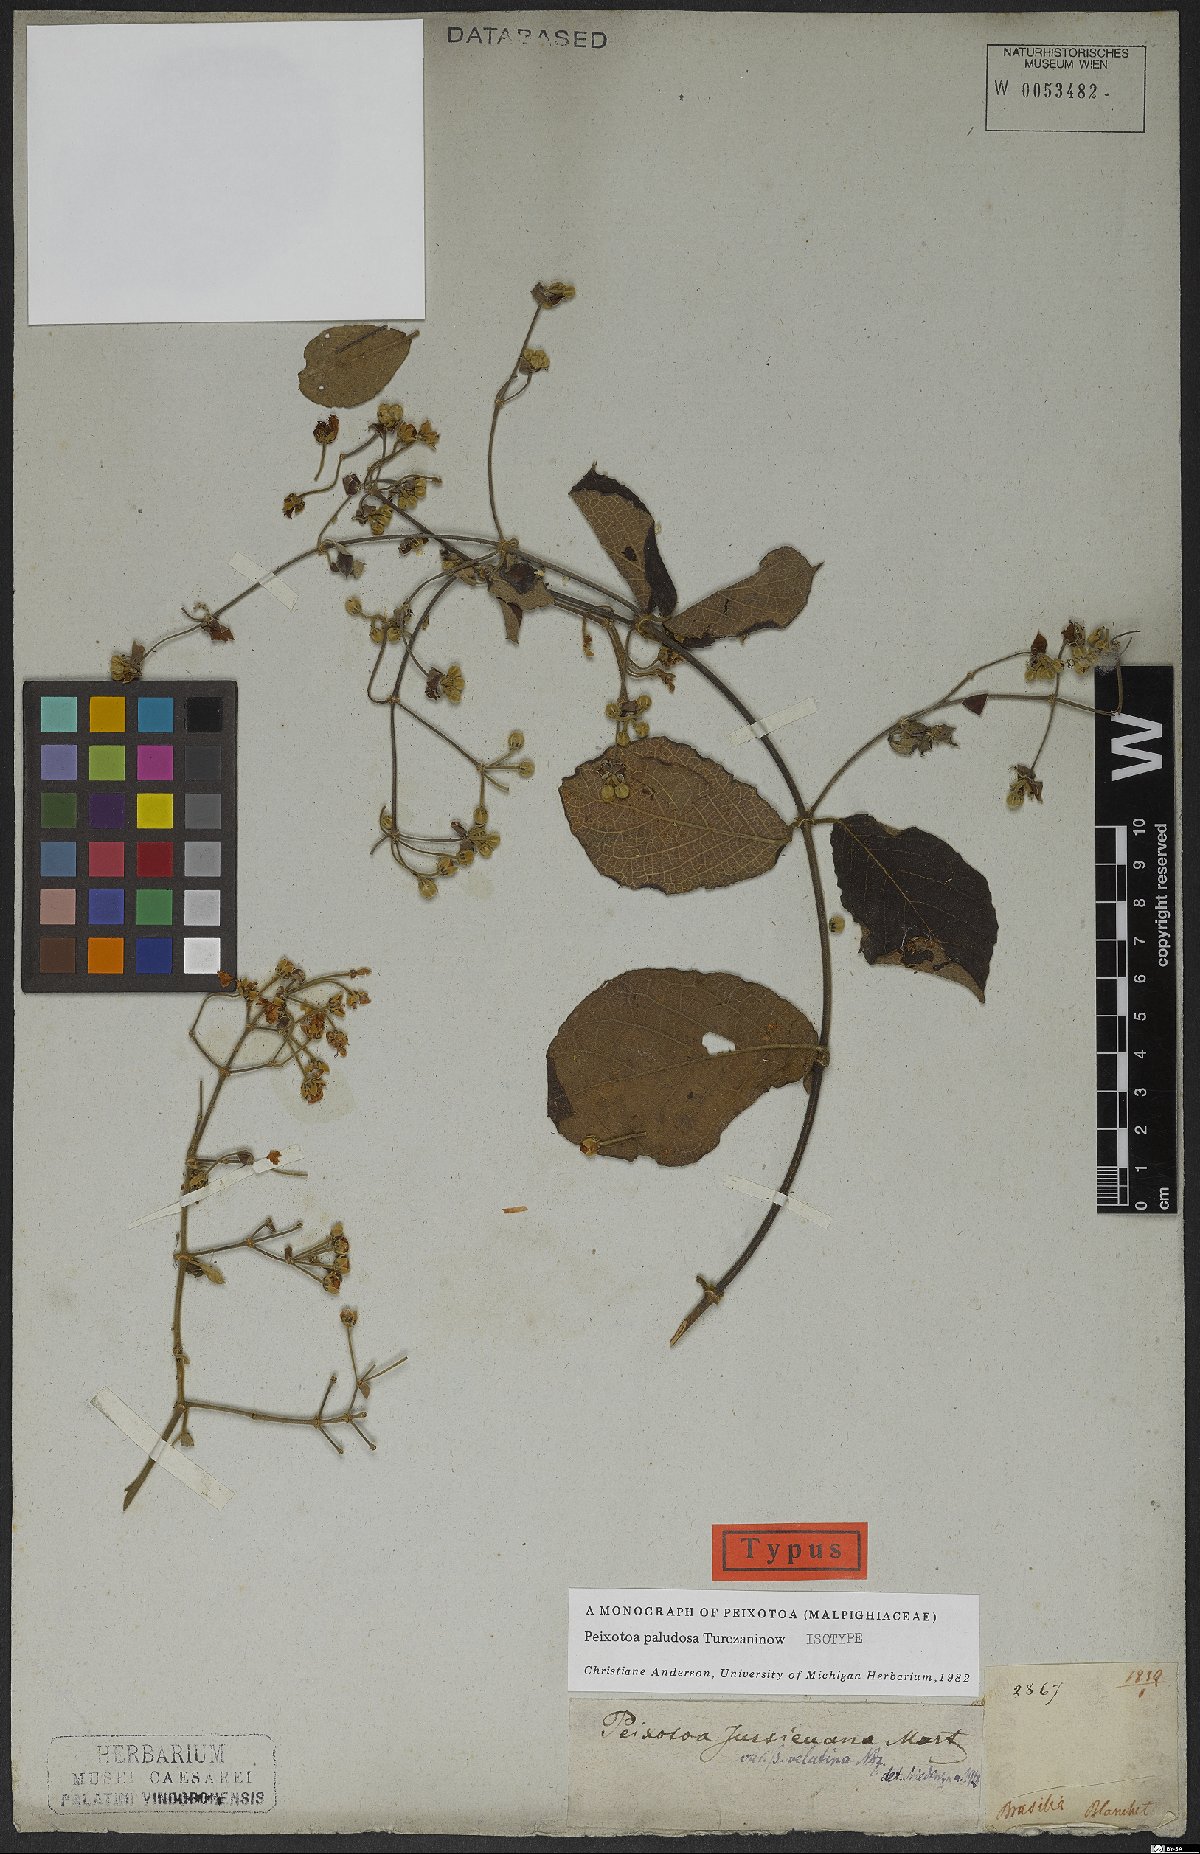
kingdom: Plantae
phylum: Tracheophyta
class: Magnoliopsida
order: Malpighiales
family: Malpighiaceae
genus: Peixotoa
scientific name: Peixotoa paludosa
